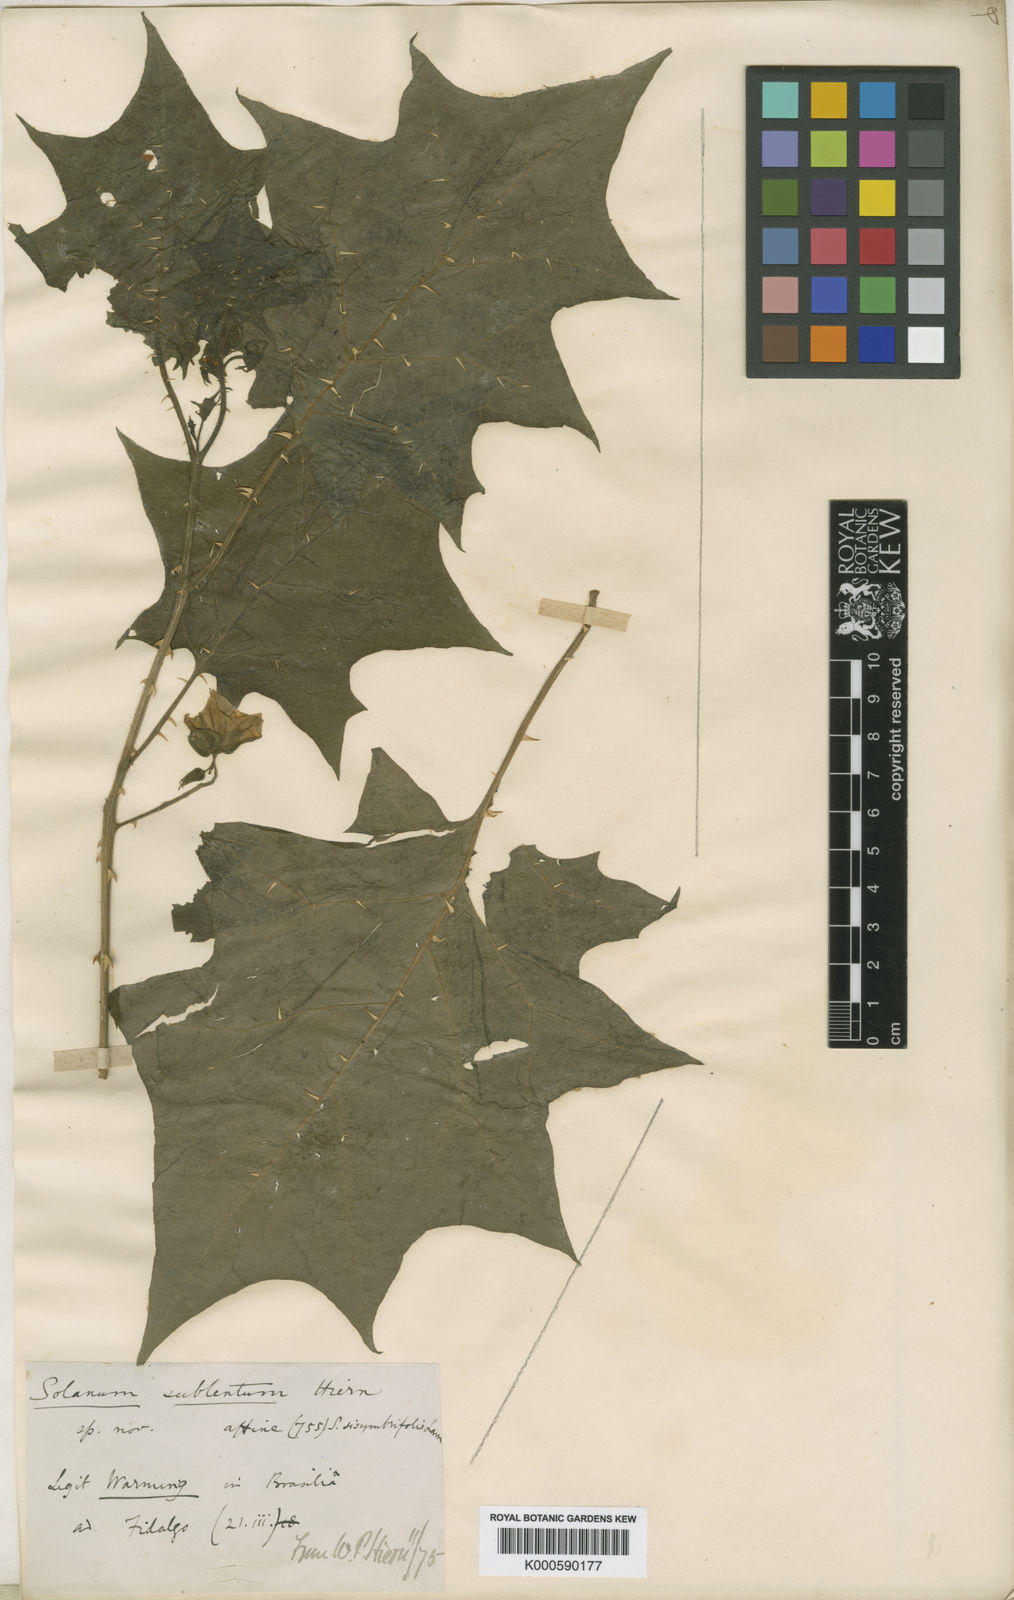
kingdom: Plantae
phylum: Tracheophyta
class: Magnoliopsida
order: Solanales
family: Solanaceae
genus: Solanum
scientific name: Solanum sublentum
